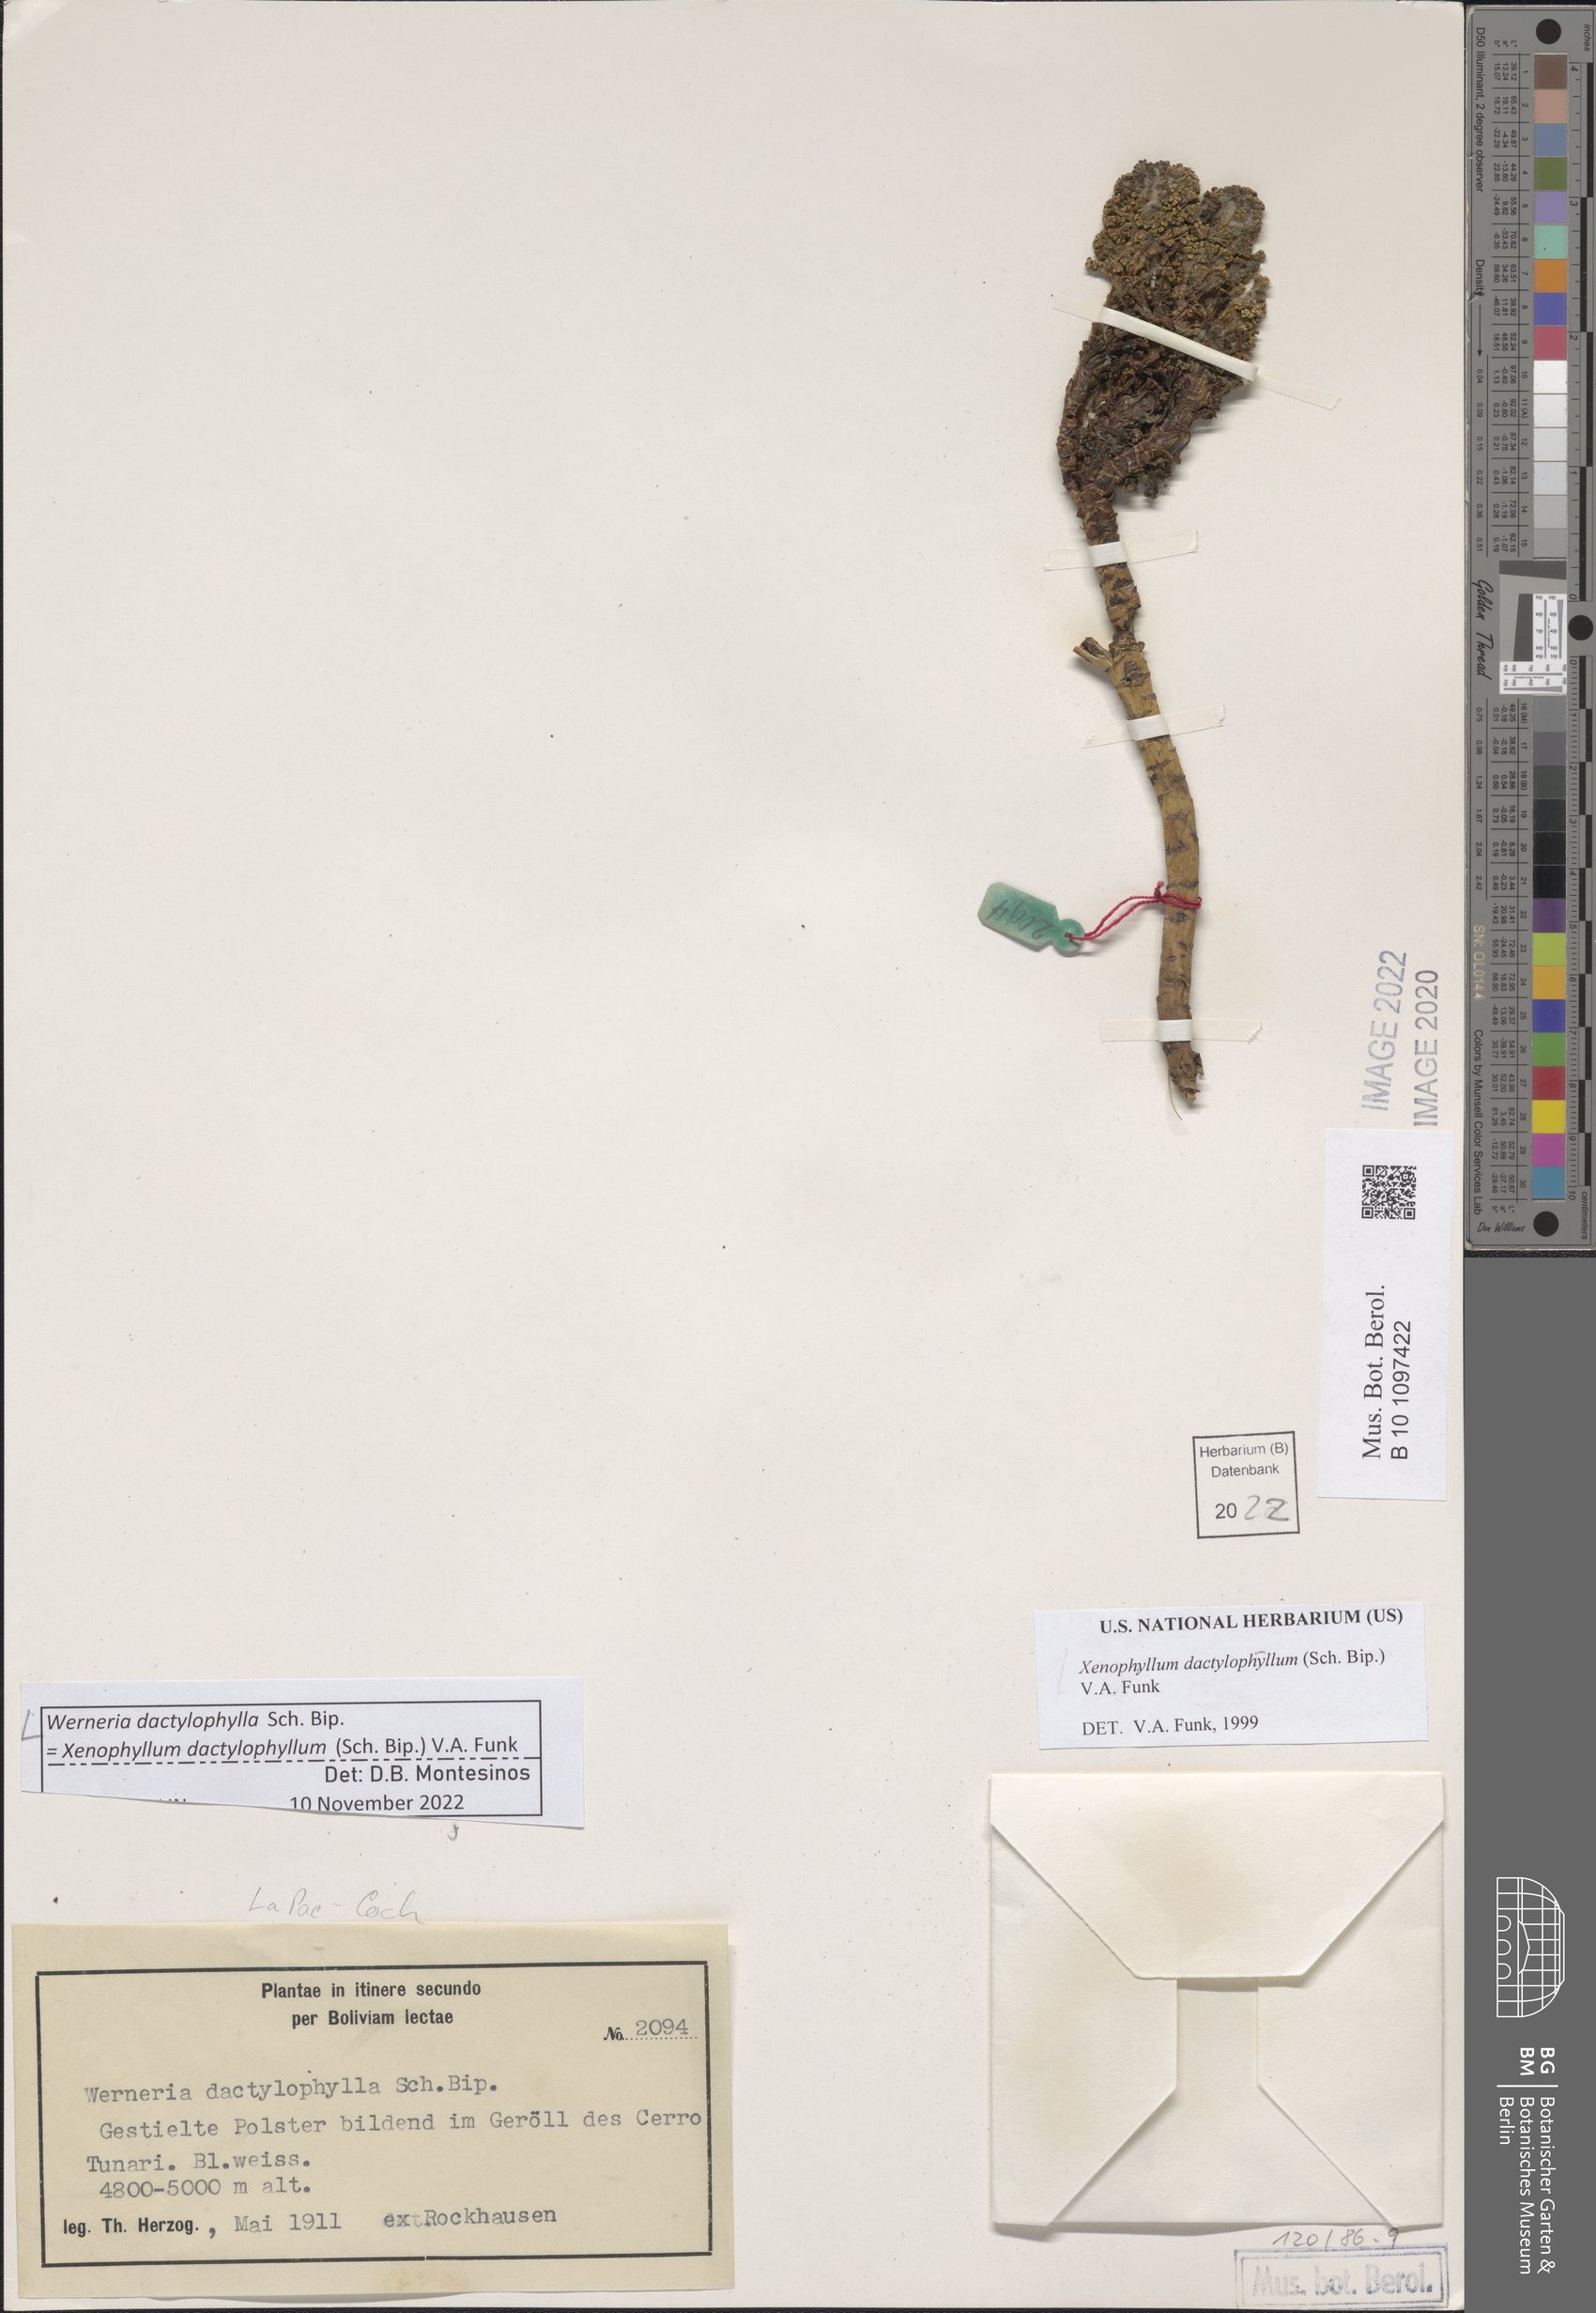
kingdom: Plantae
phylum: Tracheophyta
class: Magnoliopsida
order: Asterales
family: Asteraceae
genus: Werneria
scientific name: Werneria dactylophylla
